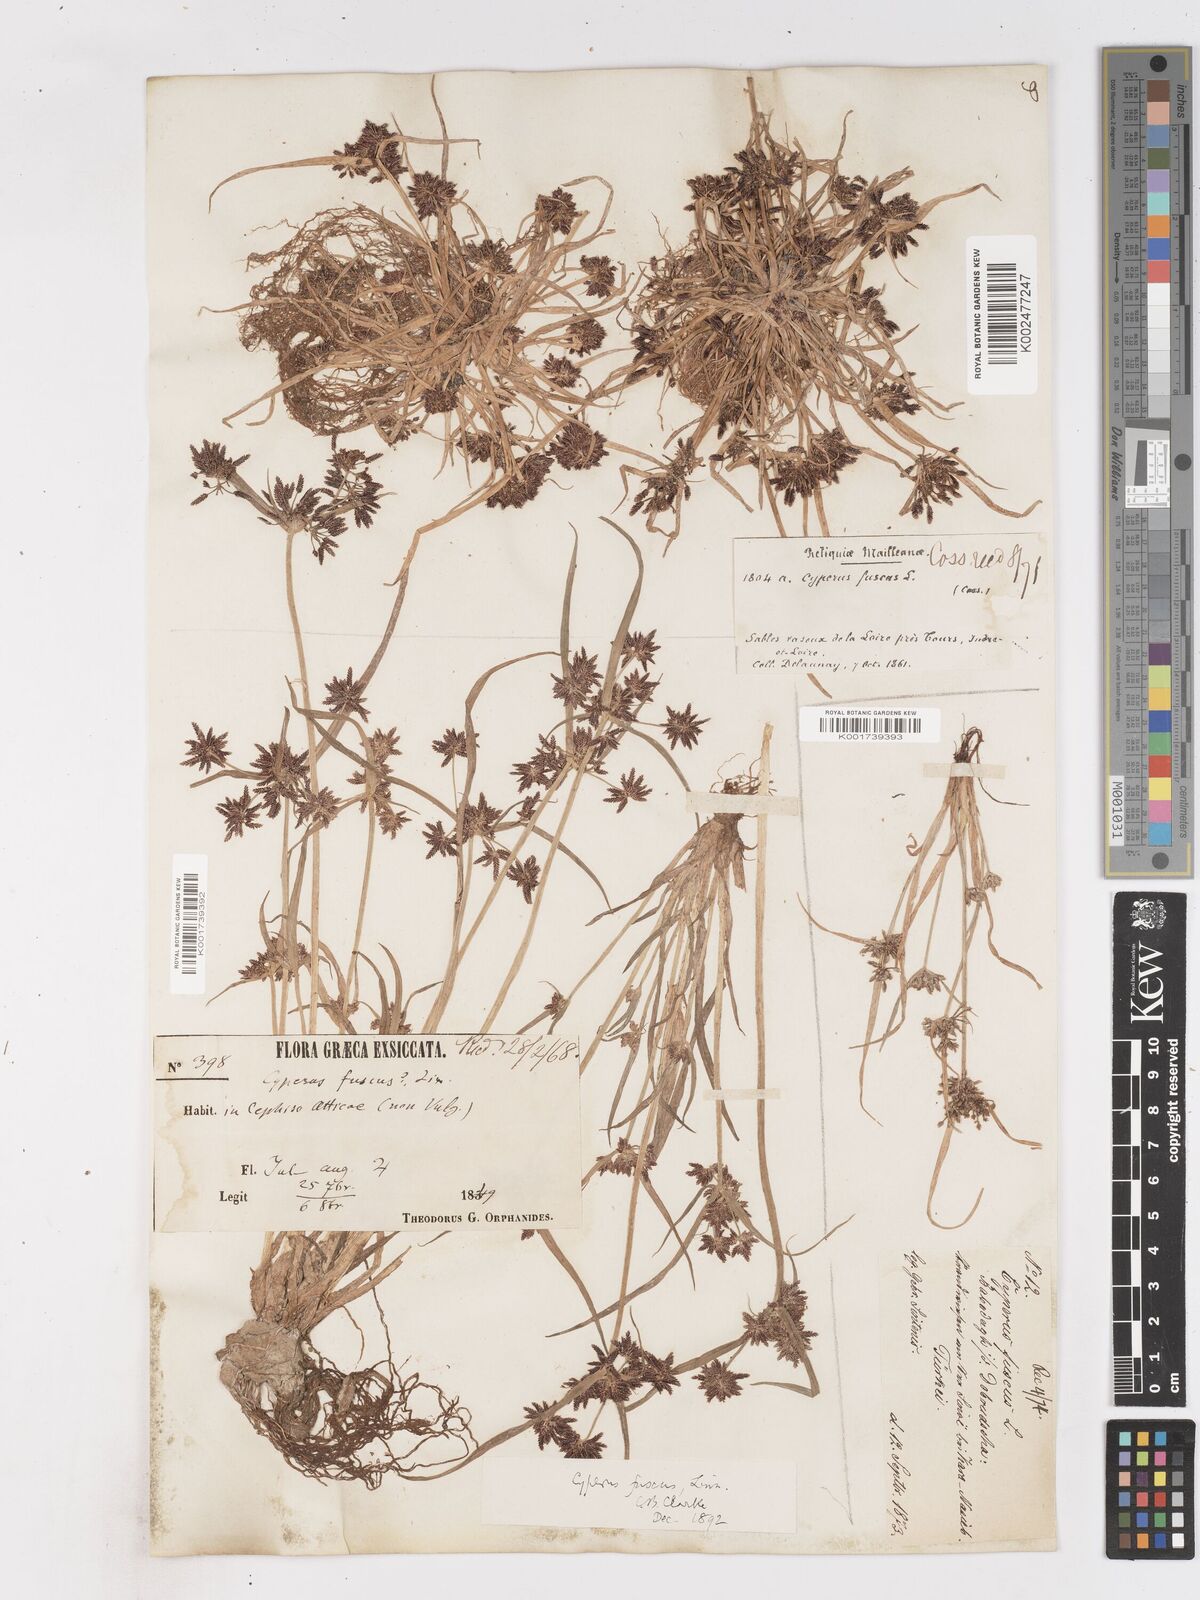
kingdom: Plantae
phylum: Tracheophyta
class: Liliopsida
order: Poales
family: Cyperaceae
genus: Cyperus
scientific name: Cyperus fuscus
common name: Brown galingale
